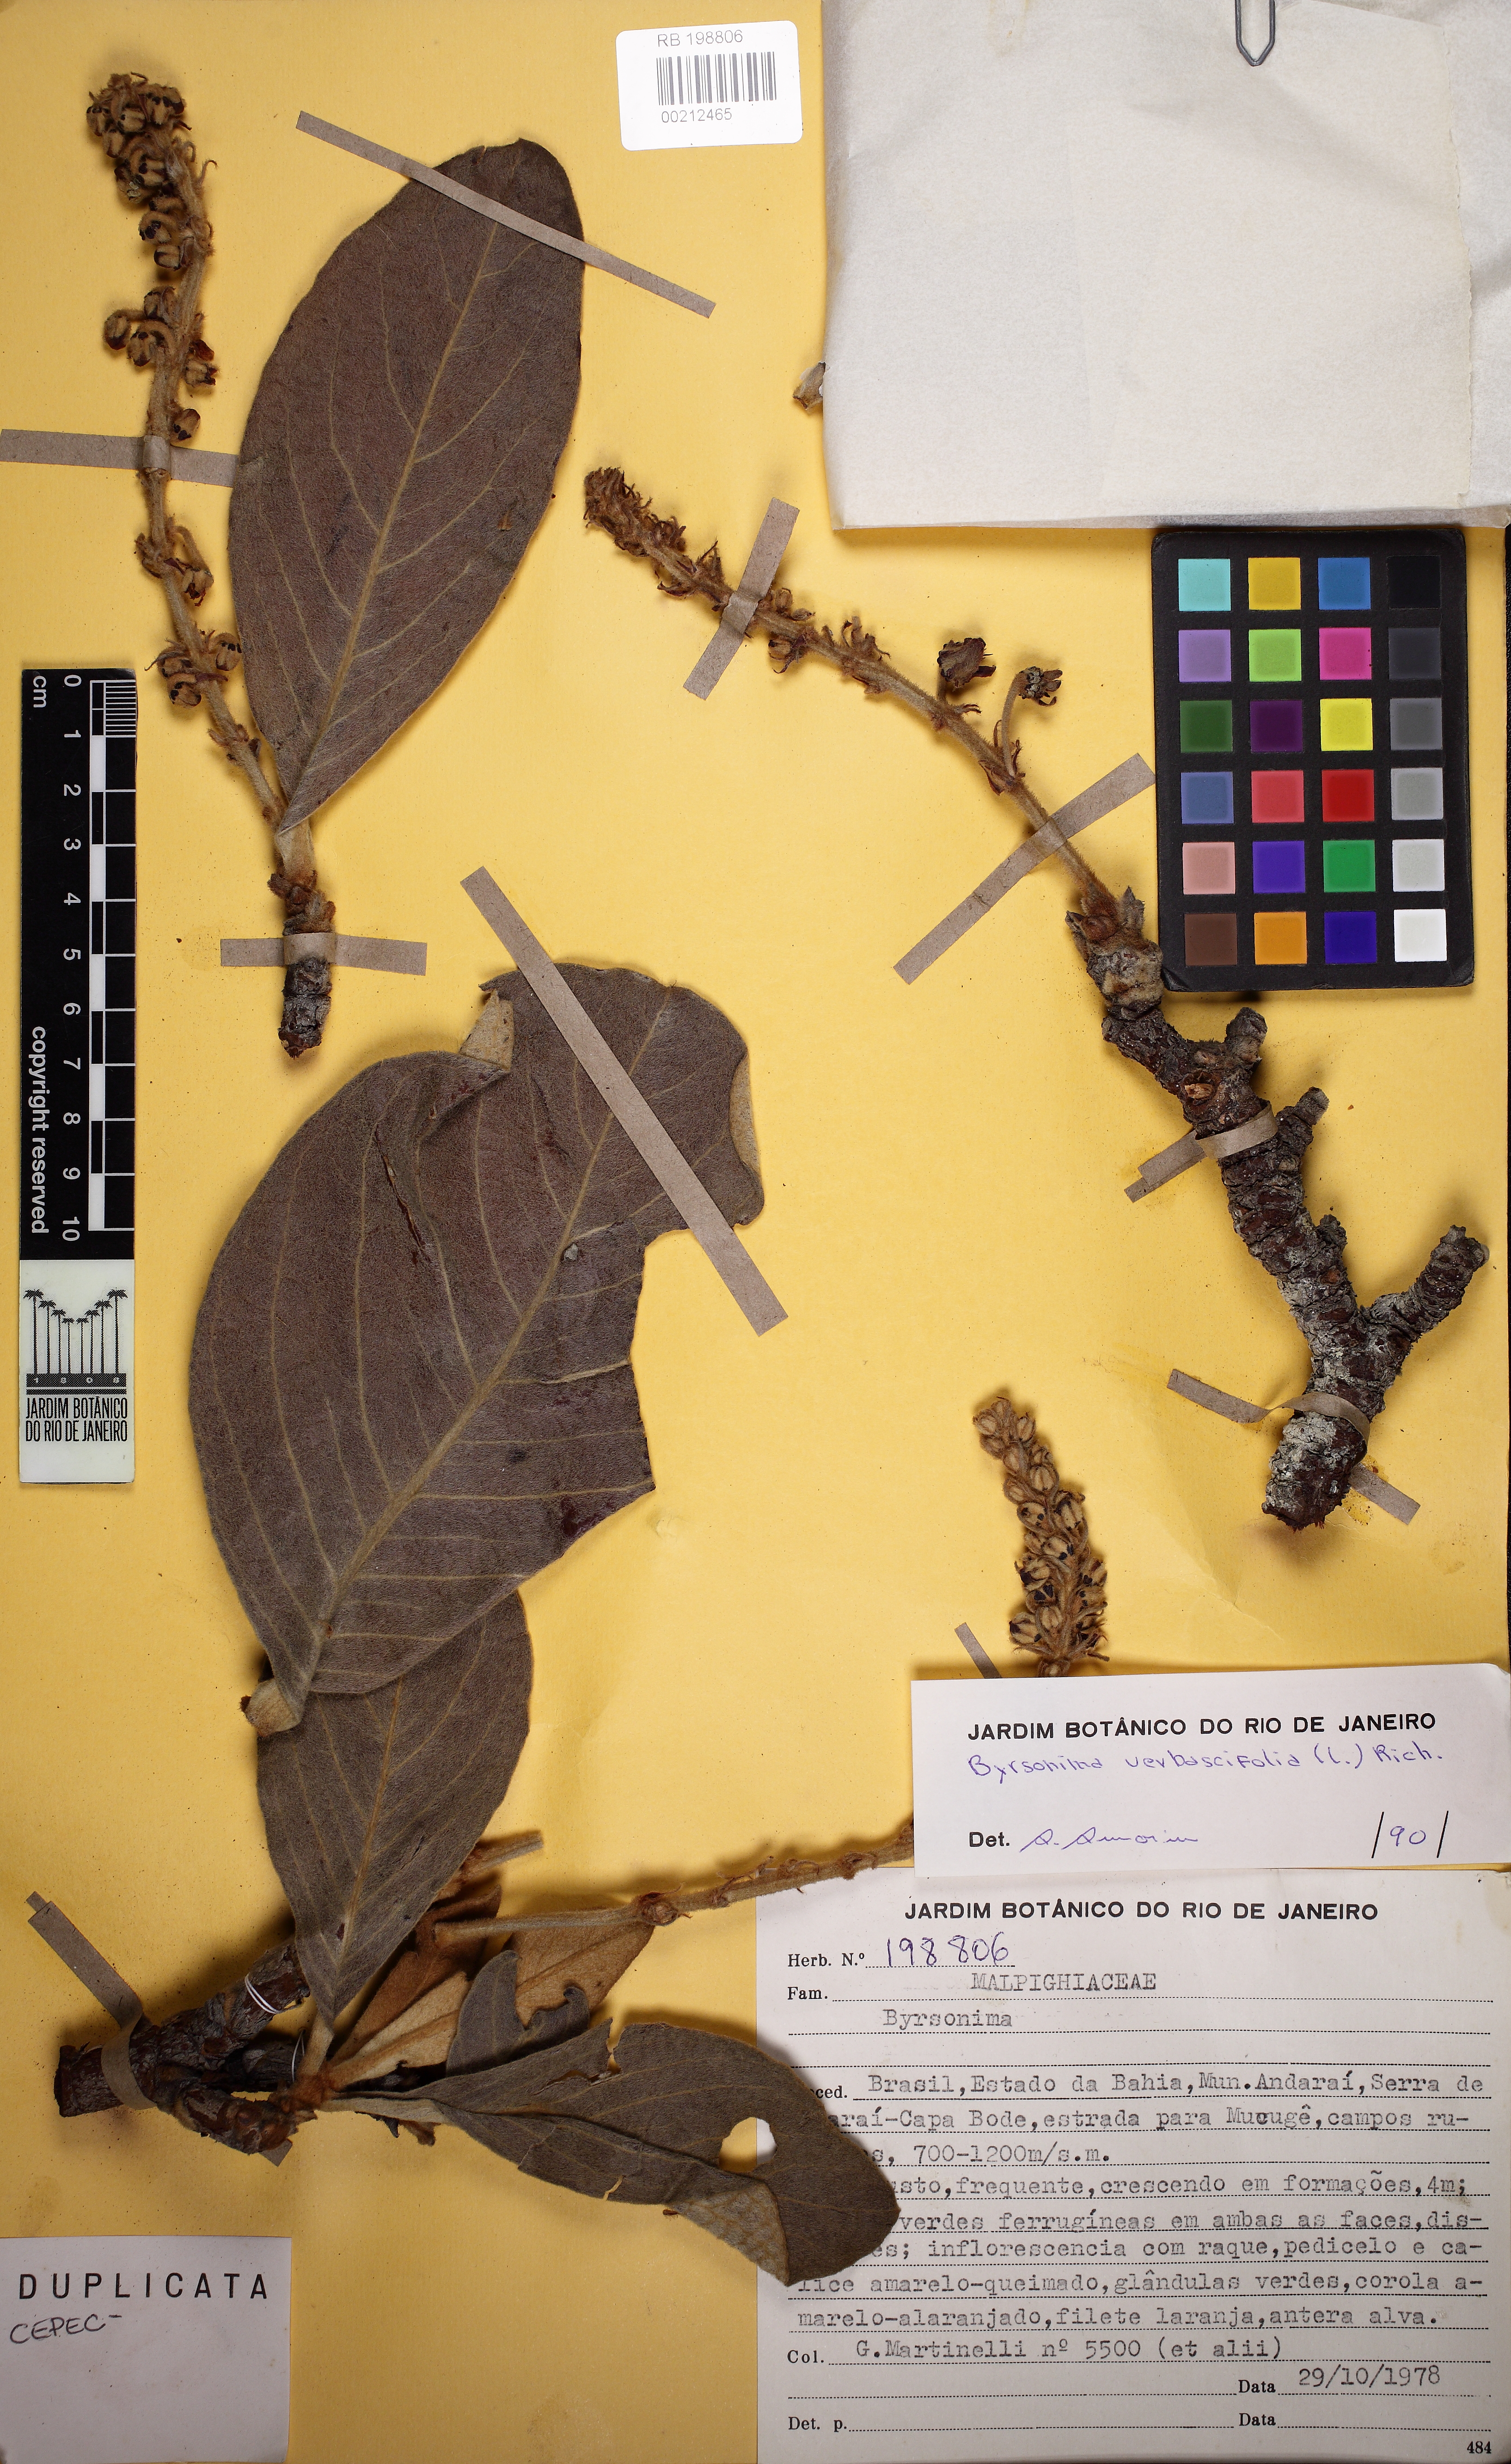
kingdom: Plantae
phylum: Tracheophyta
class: Magnoliopsida
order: Malpighiales
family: Malpighiaceae
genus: Byrsonima
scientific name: Byrsonima verbascifolia
